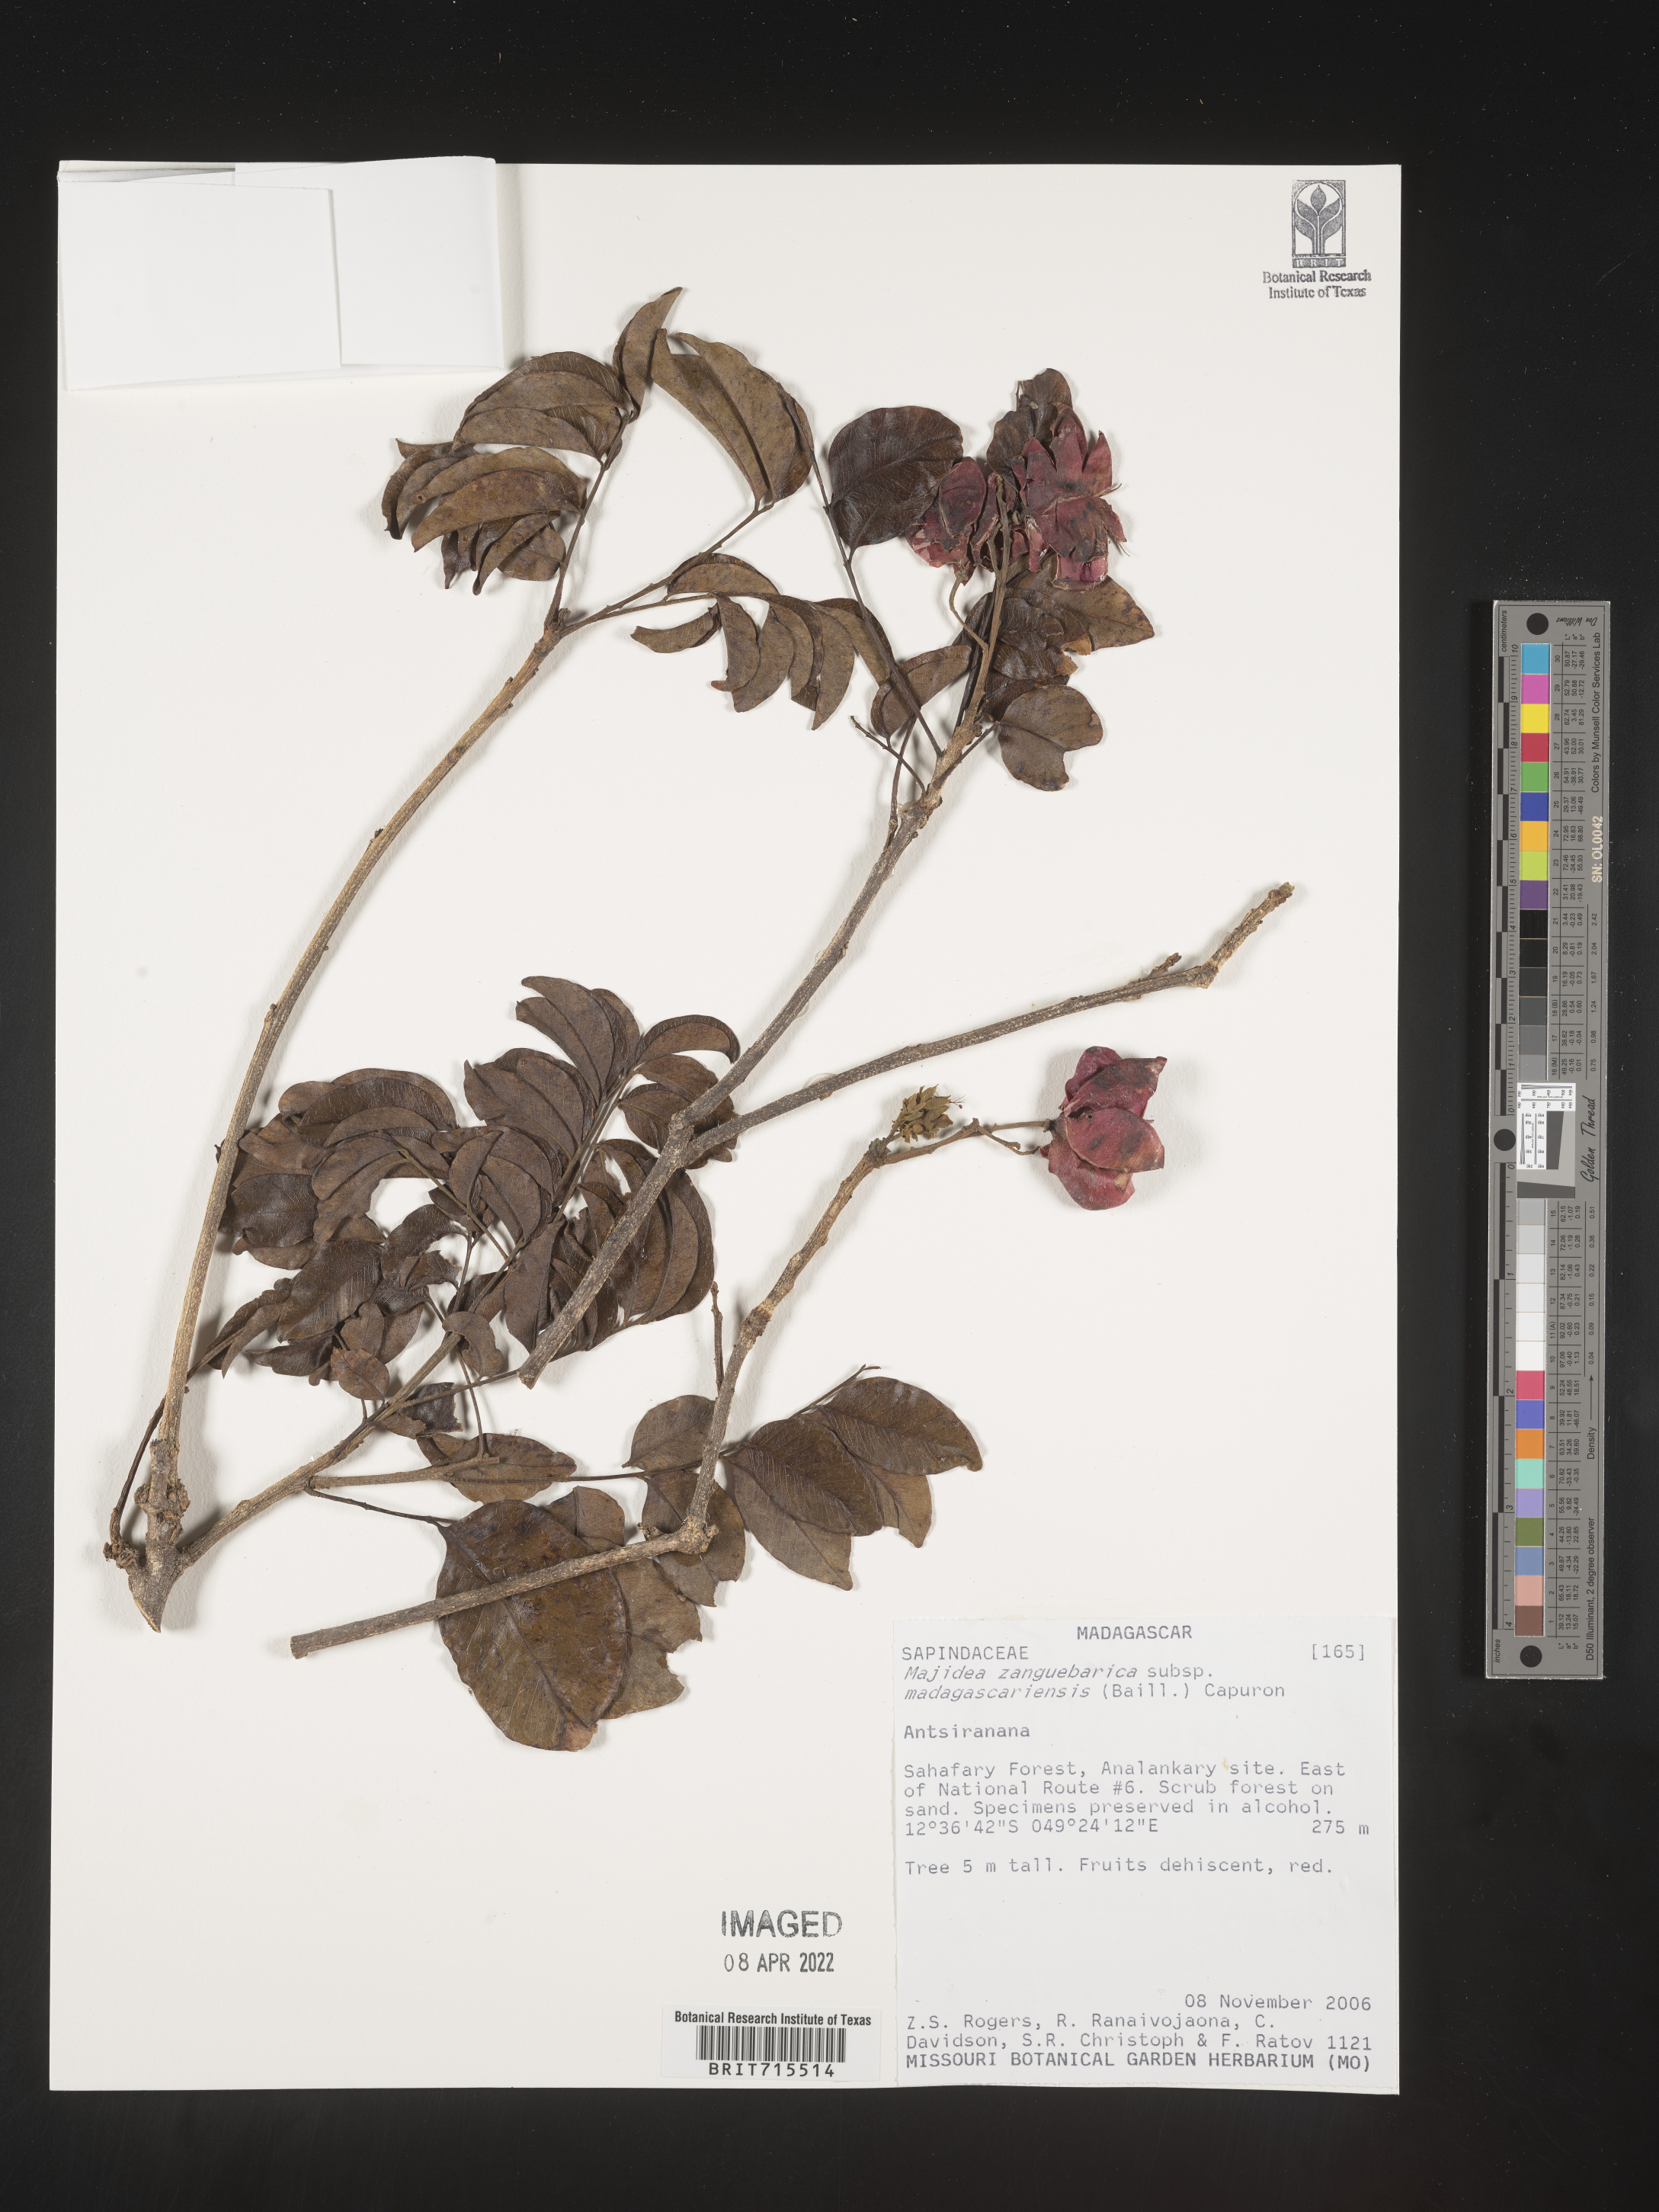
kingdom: Plantae
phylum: Tracheophyta
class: Magnoliopsida
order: Sapindales
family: Sapindaceae
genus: Majidea
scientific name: Majidea
